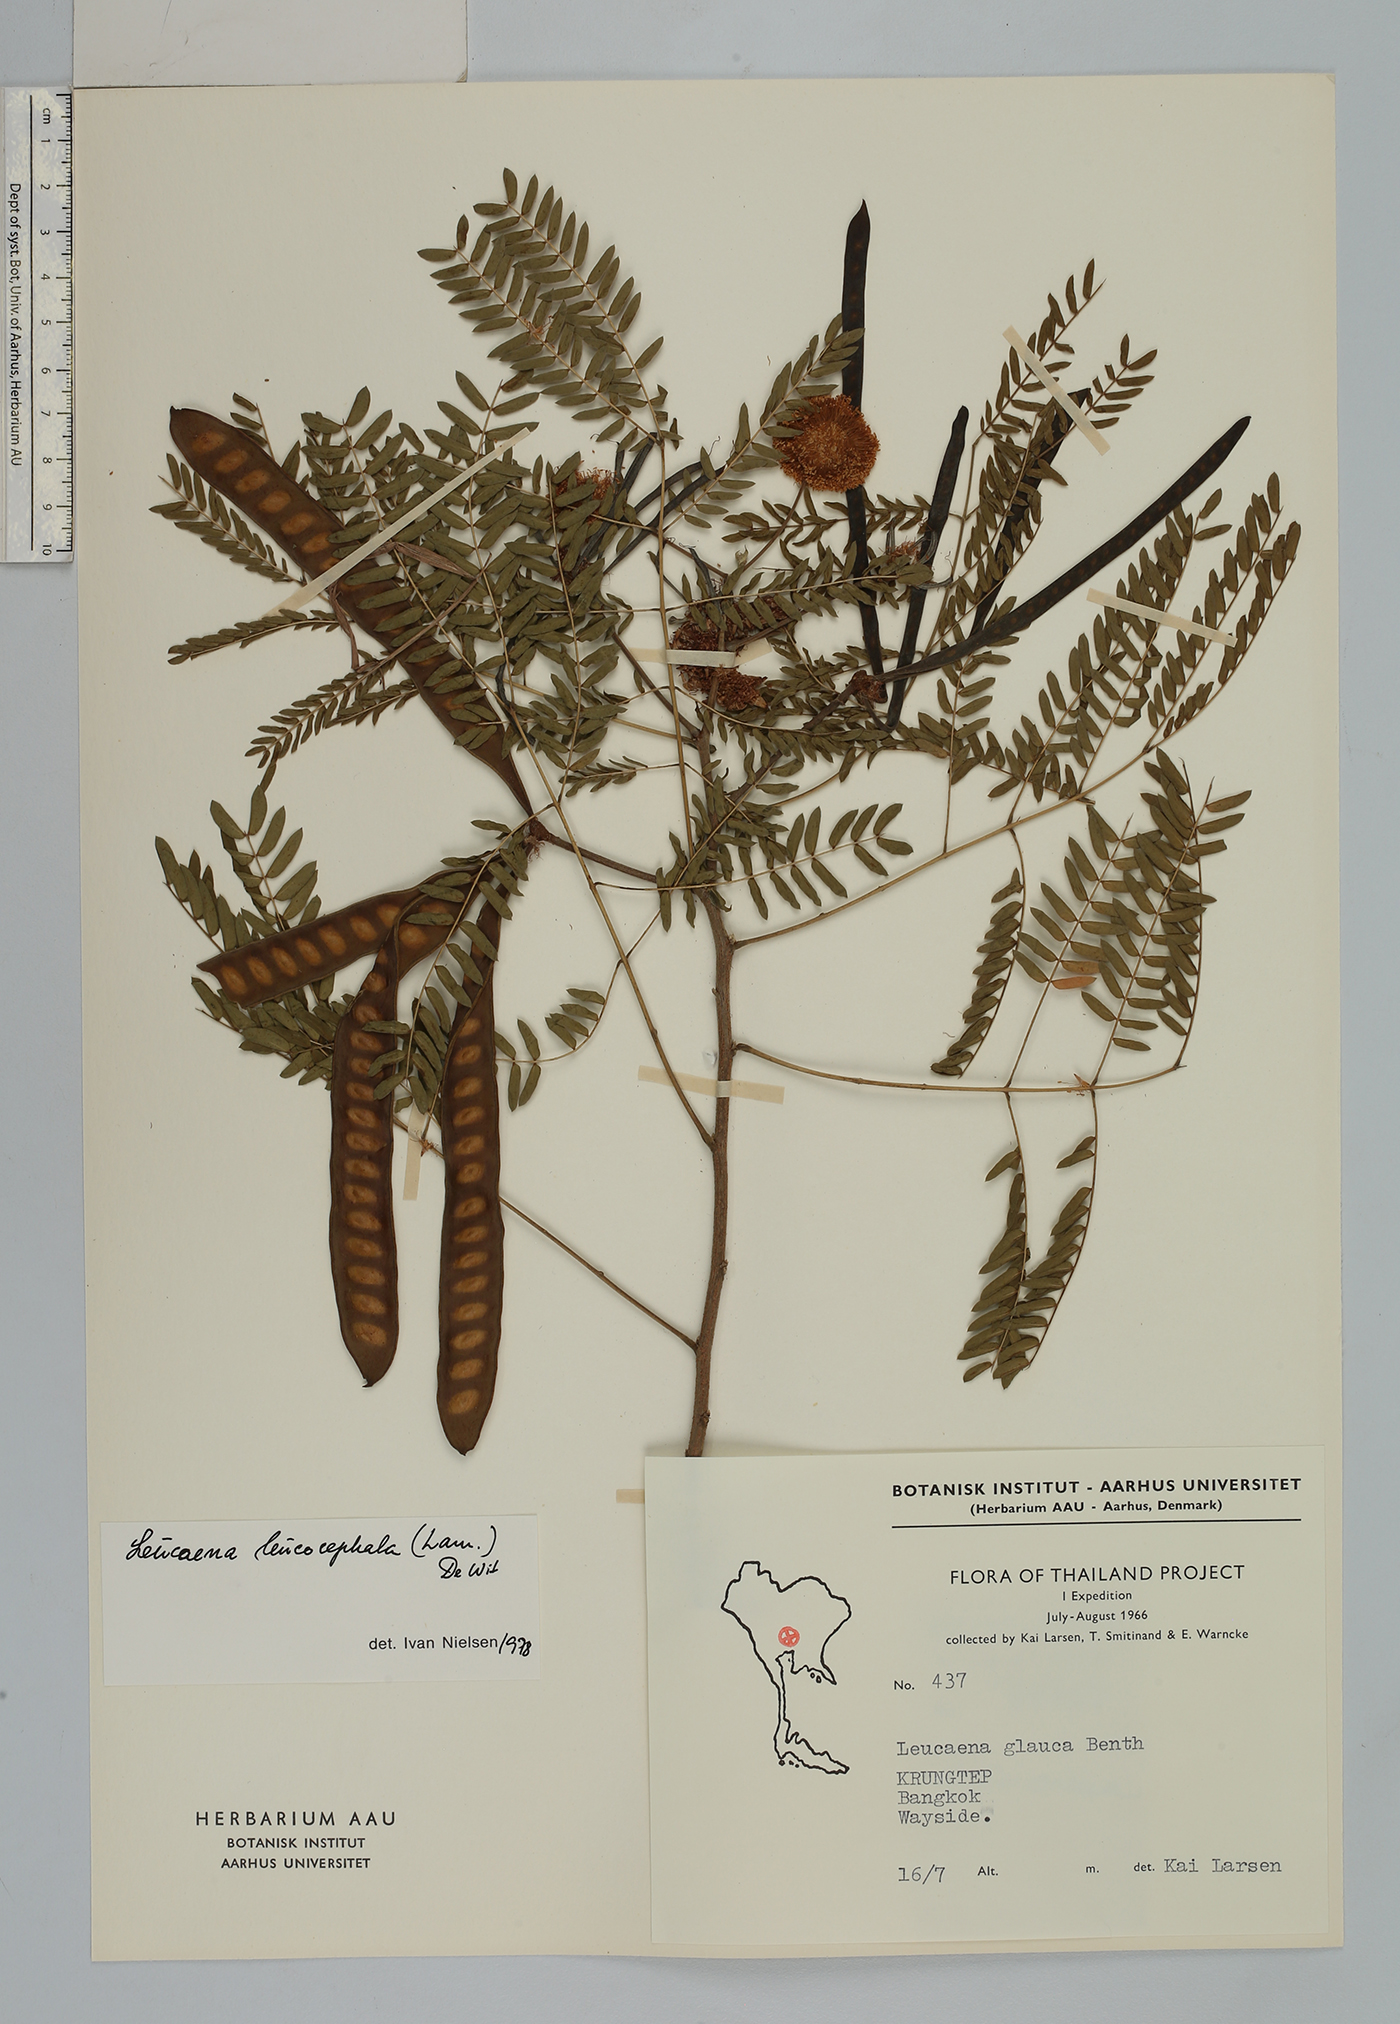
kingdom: Plantae
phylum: Tracheophyta
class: Magnoliopsida
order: Fabales
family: Fabaceae
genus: Leucaena
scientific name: Leucaena leucocephala
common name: White leadtree
